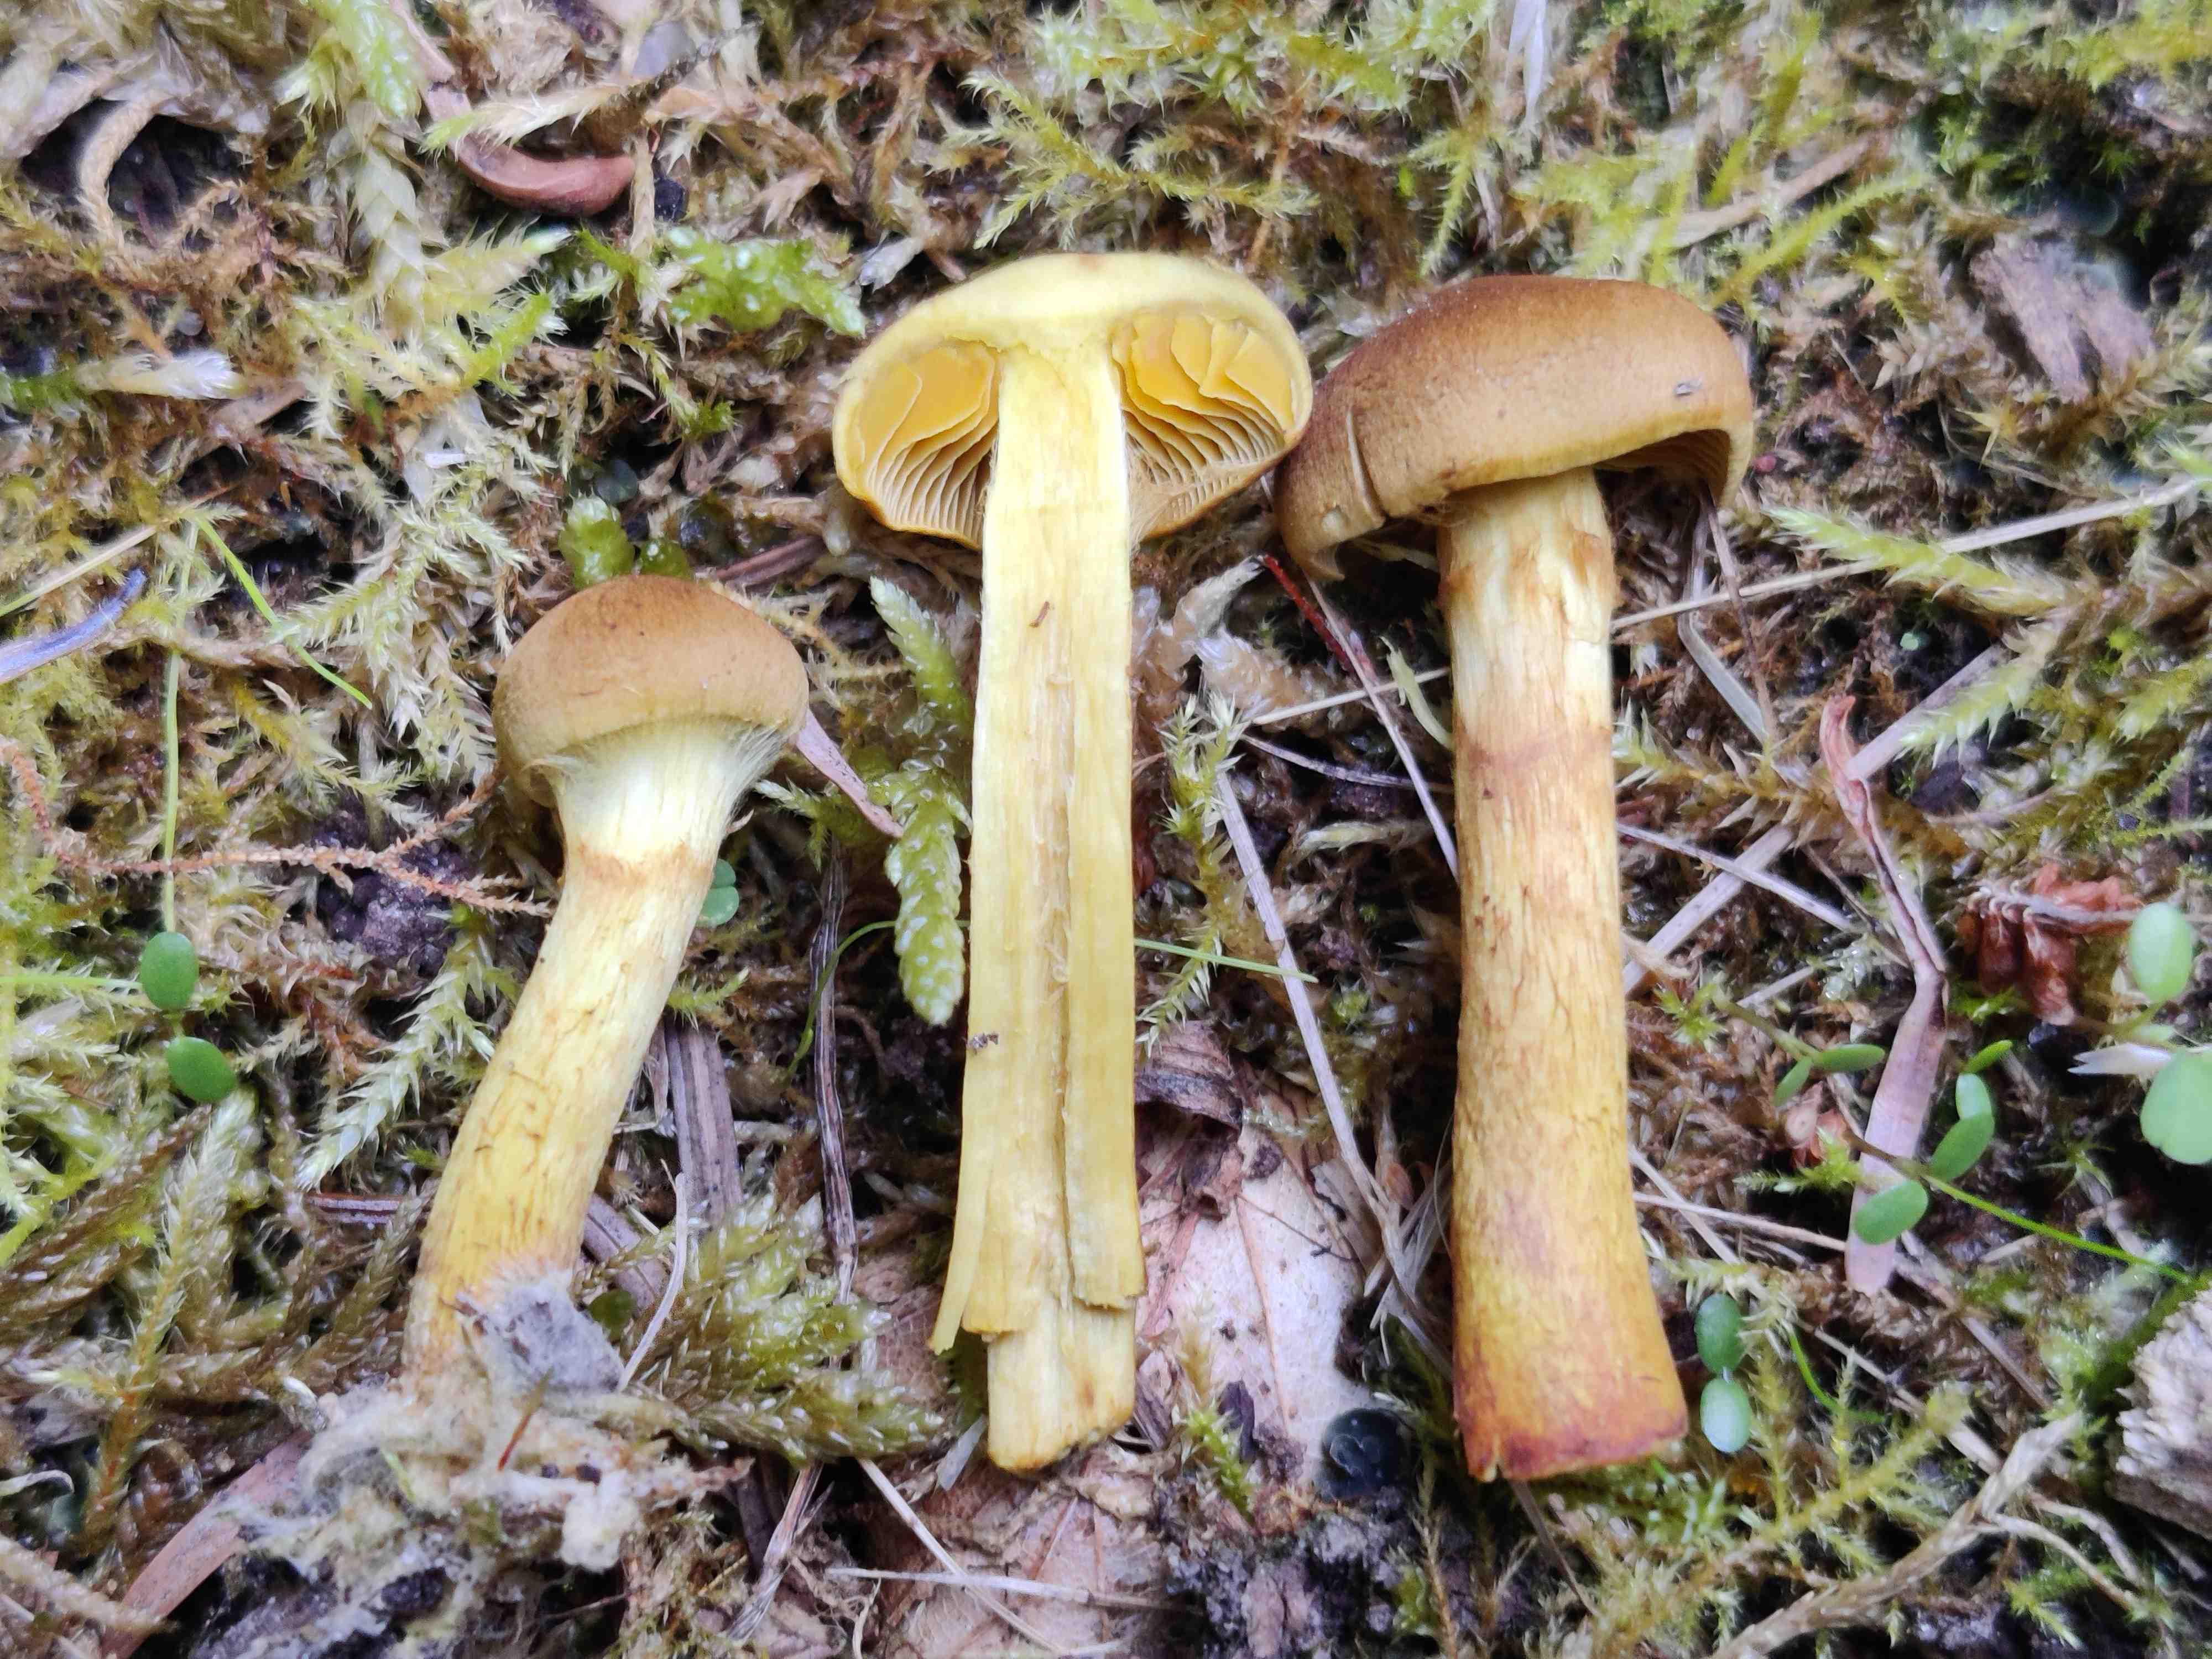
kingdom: Fungi
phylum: Basidiomycota
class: Agaricomycetes
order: Agaricales
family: Cortinariaceae
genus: Cortinarius
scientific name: Cortinarius
